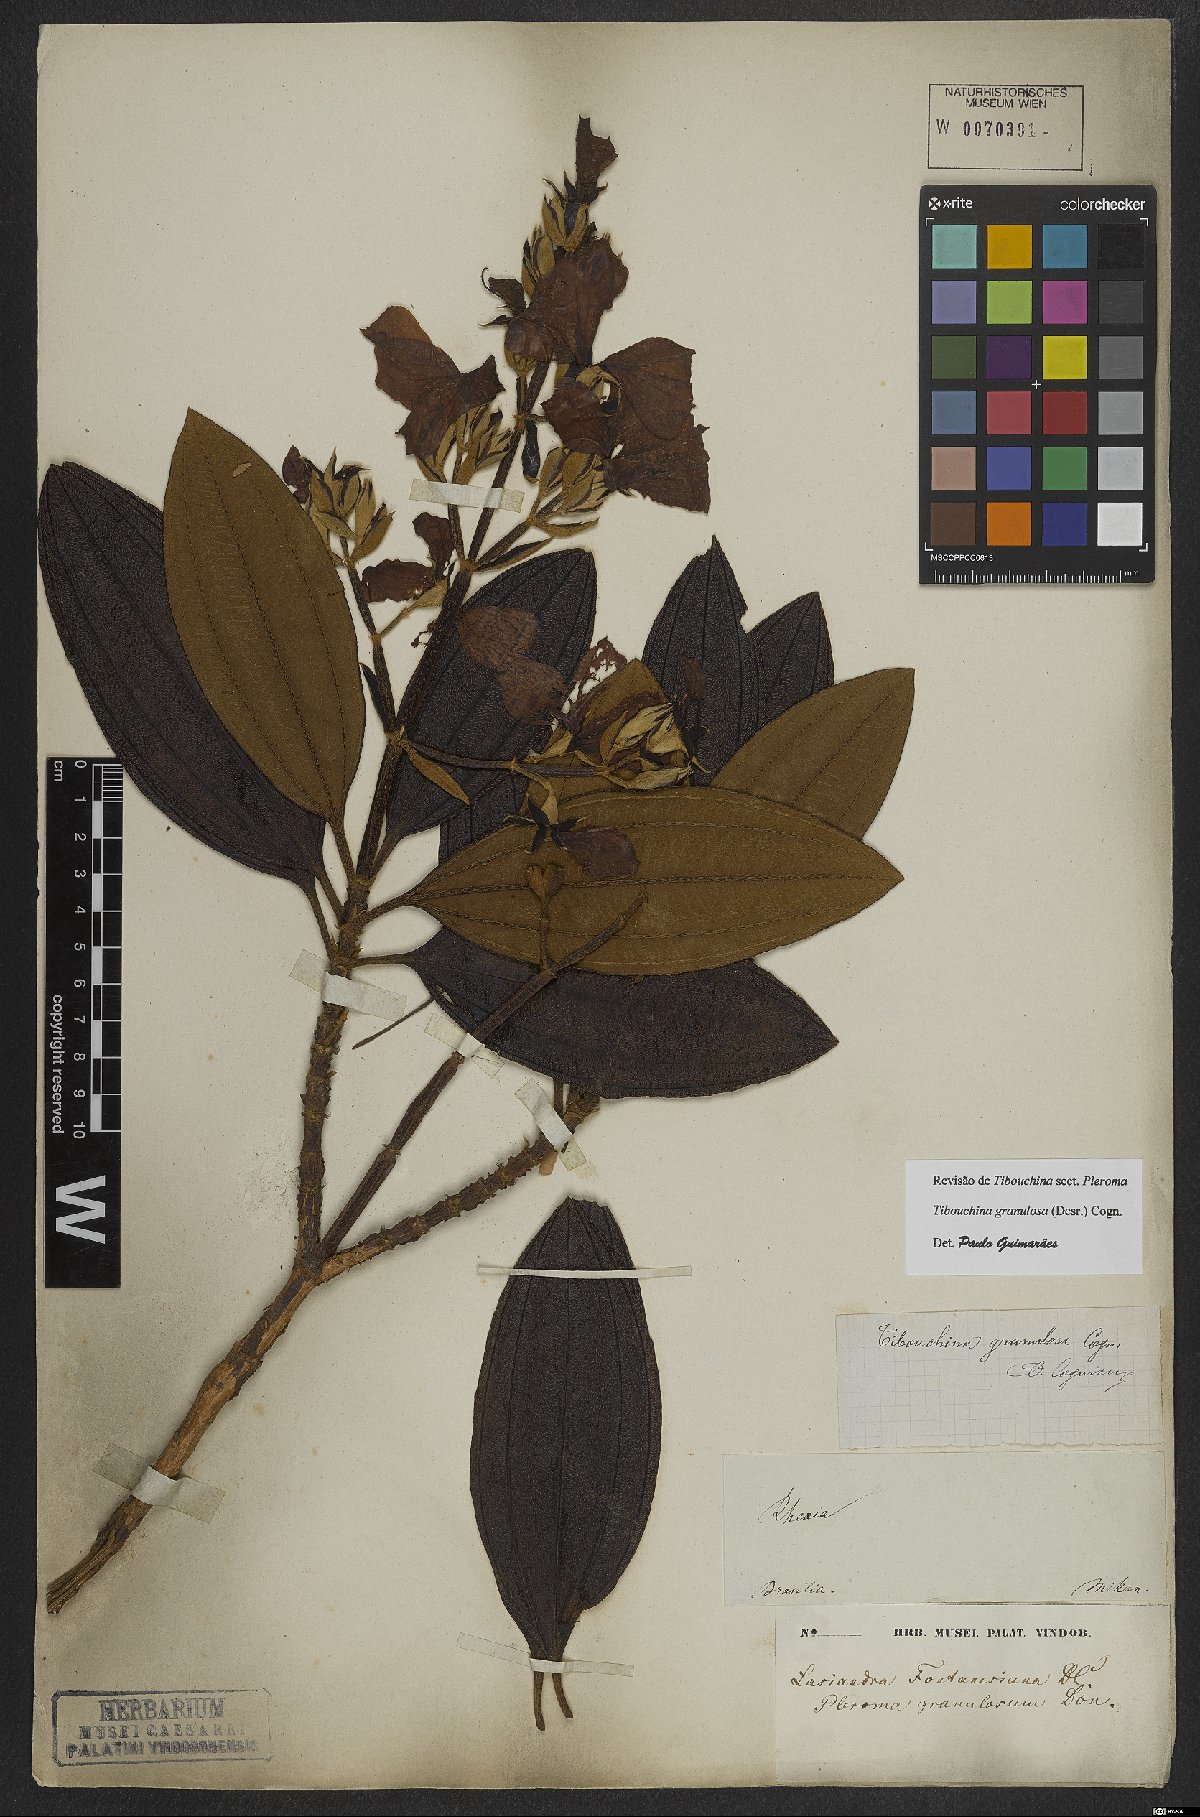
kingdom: Plantae
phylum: Tracheophyta
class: Magnoliopsida
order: Myrtales
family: Melastomataceae
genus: Pleroma
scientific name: Pleroma granulosum
